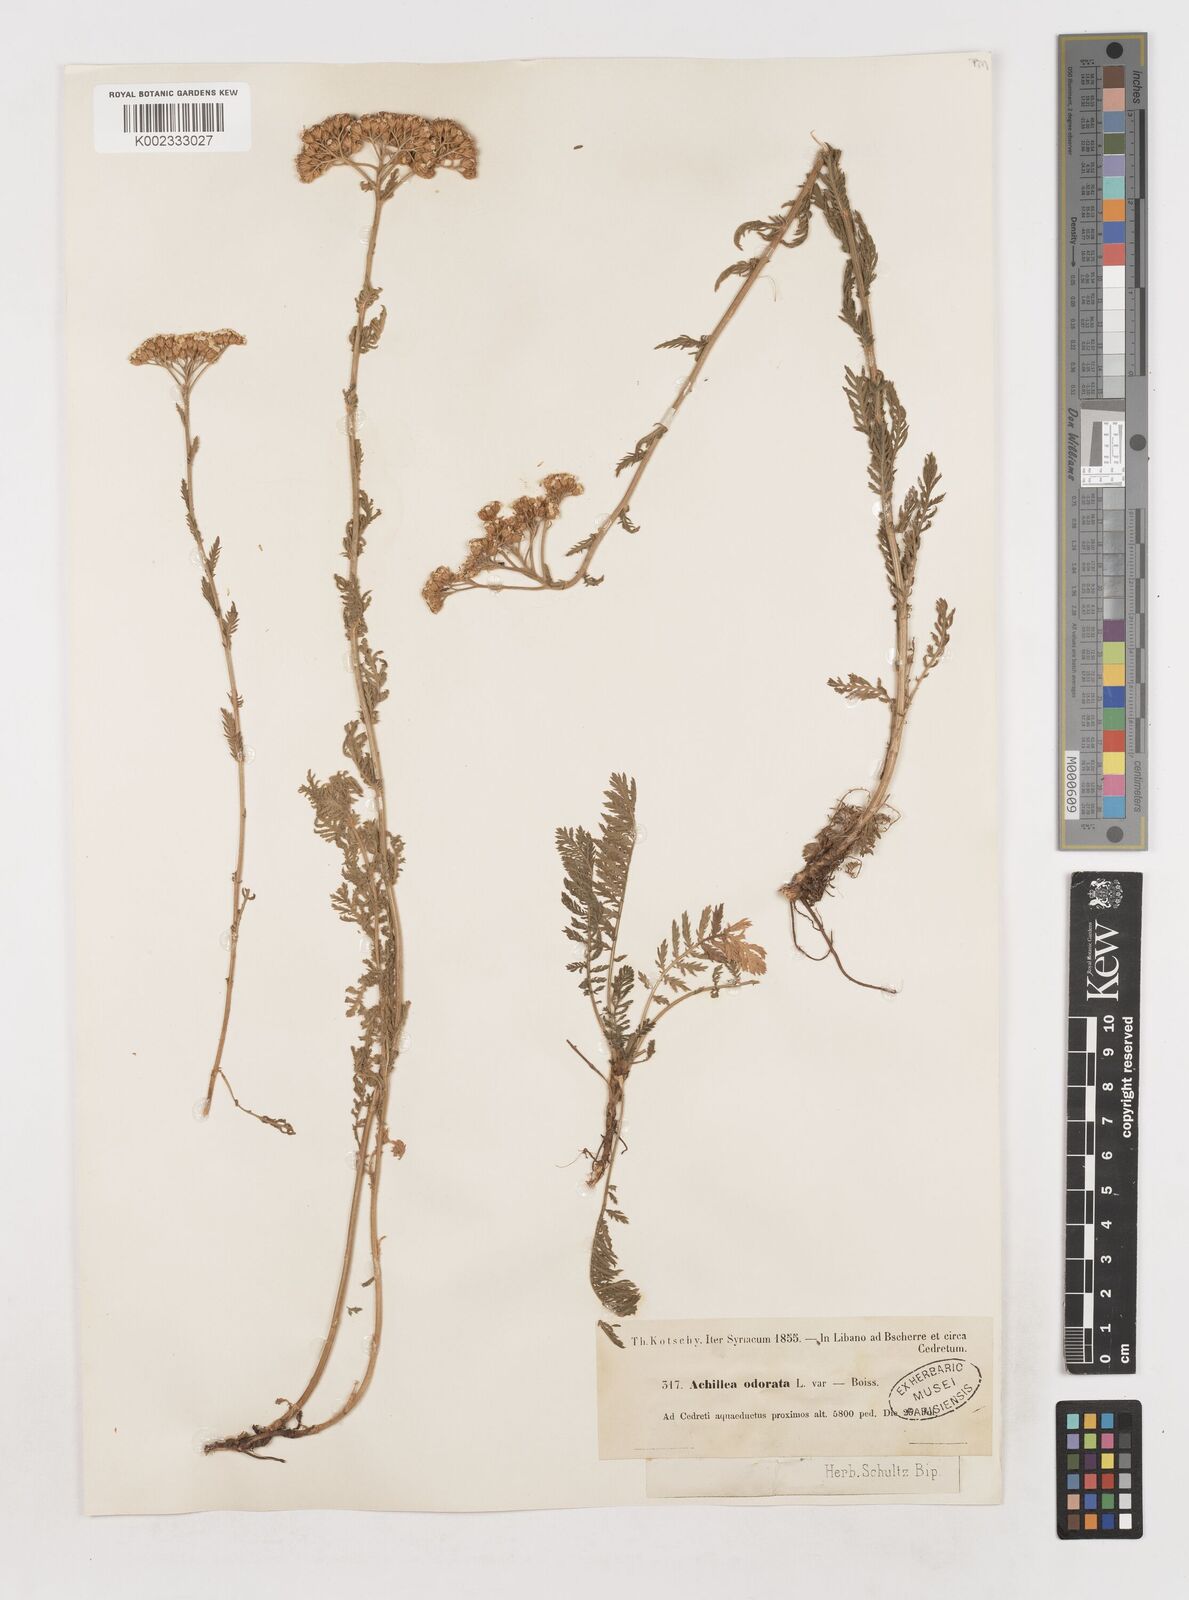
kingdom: Plantae
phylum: Tracheophyta
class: Magnoliopsida
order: Asterales
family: Asteraceae
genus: Achillea
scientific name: Achillea odorata
